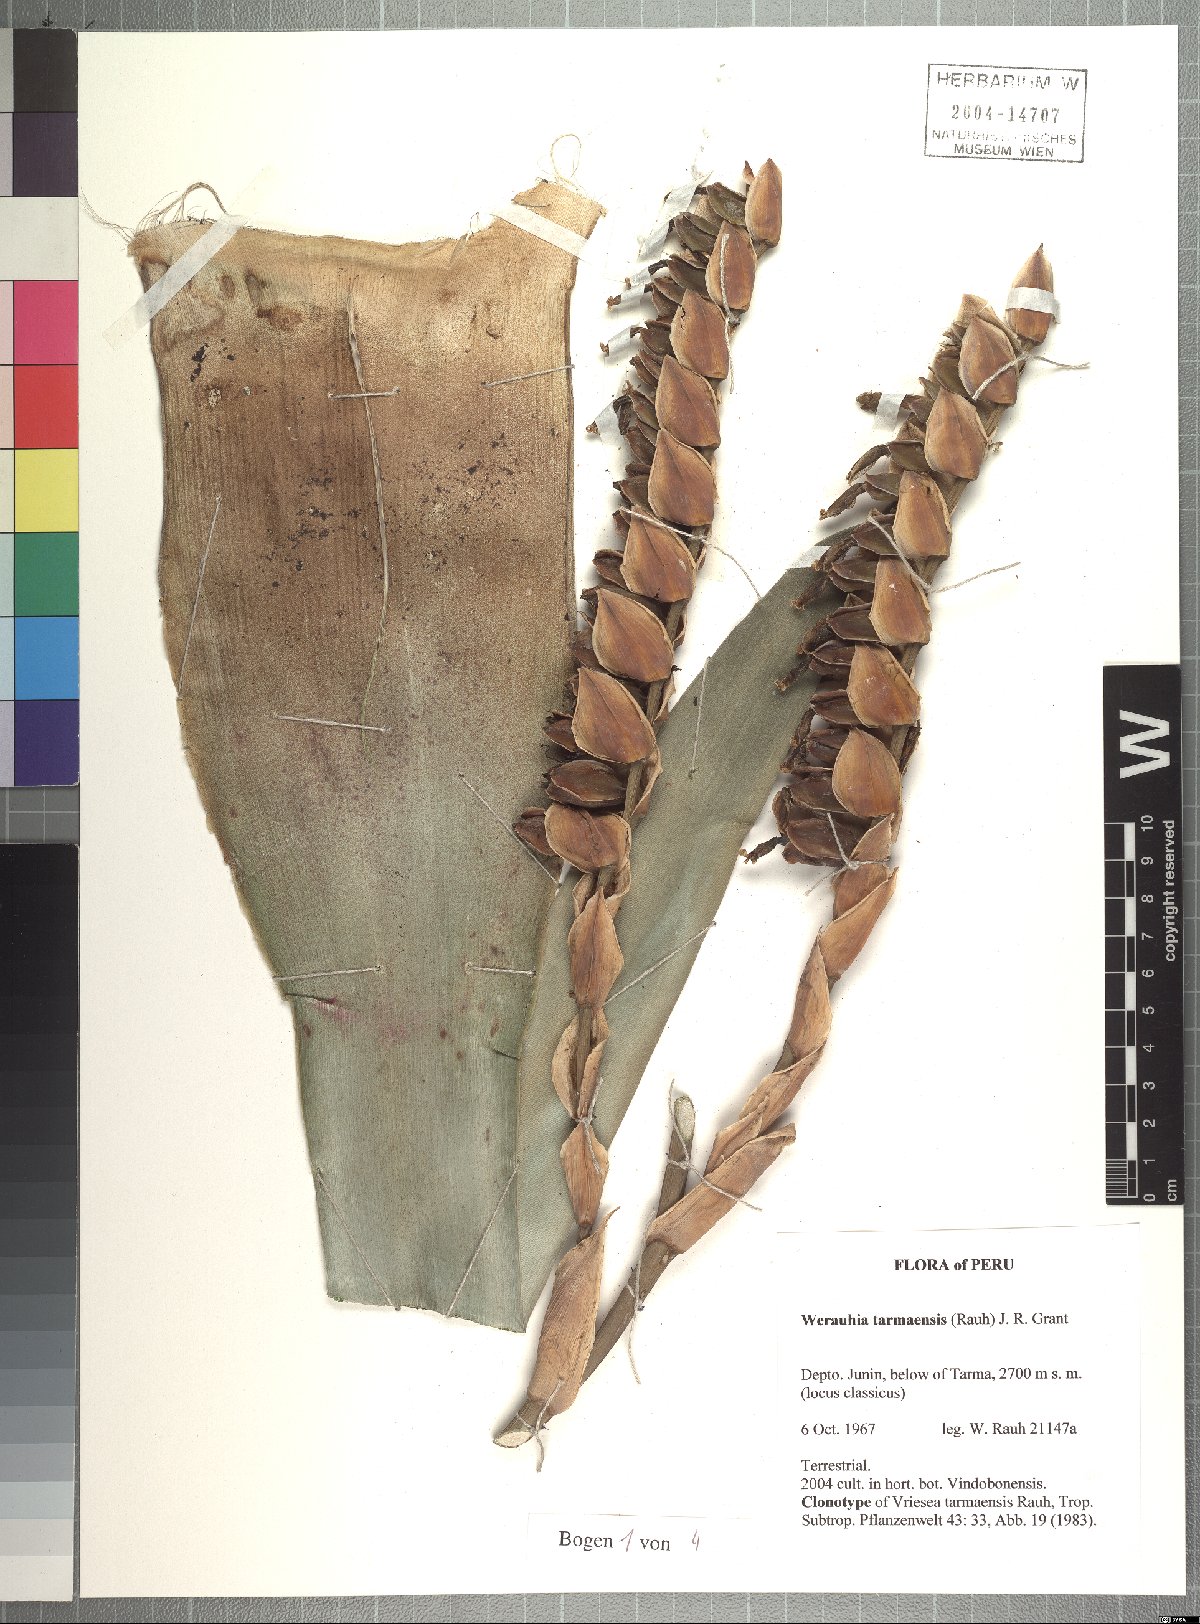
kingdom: Plantae
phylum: Tracheophyta
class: Liliopsida
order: Poales
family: Bromeliaceae
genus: Werauhia
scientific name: Werauhia tarmaensis
